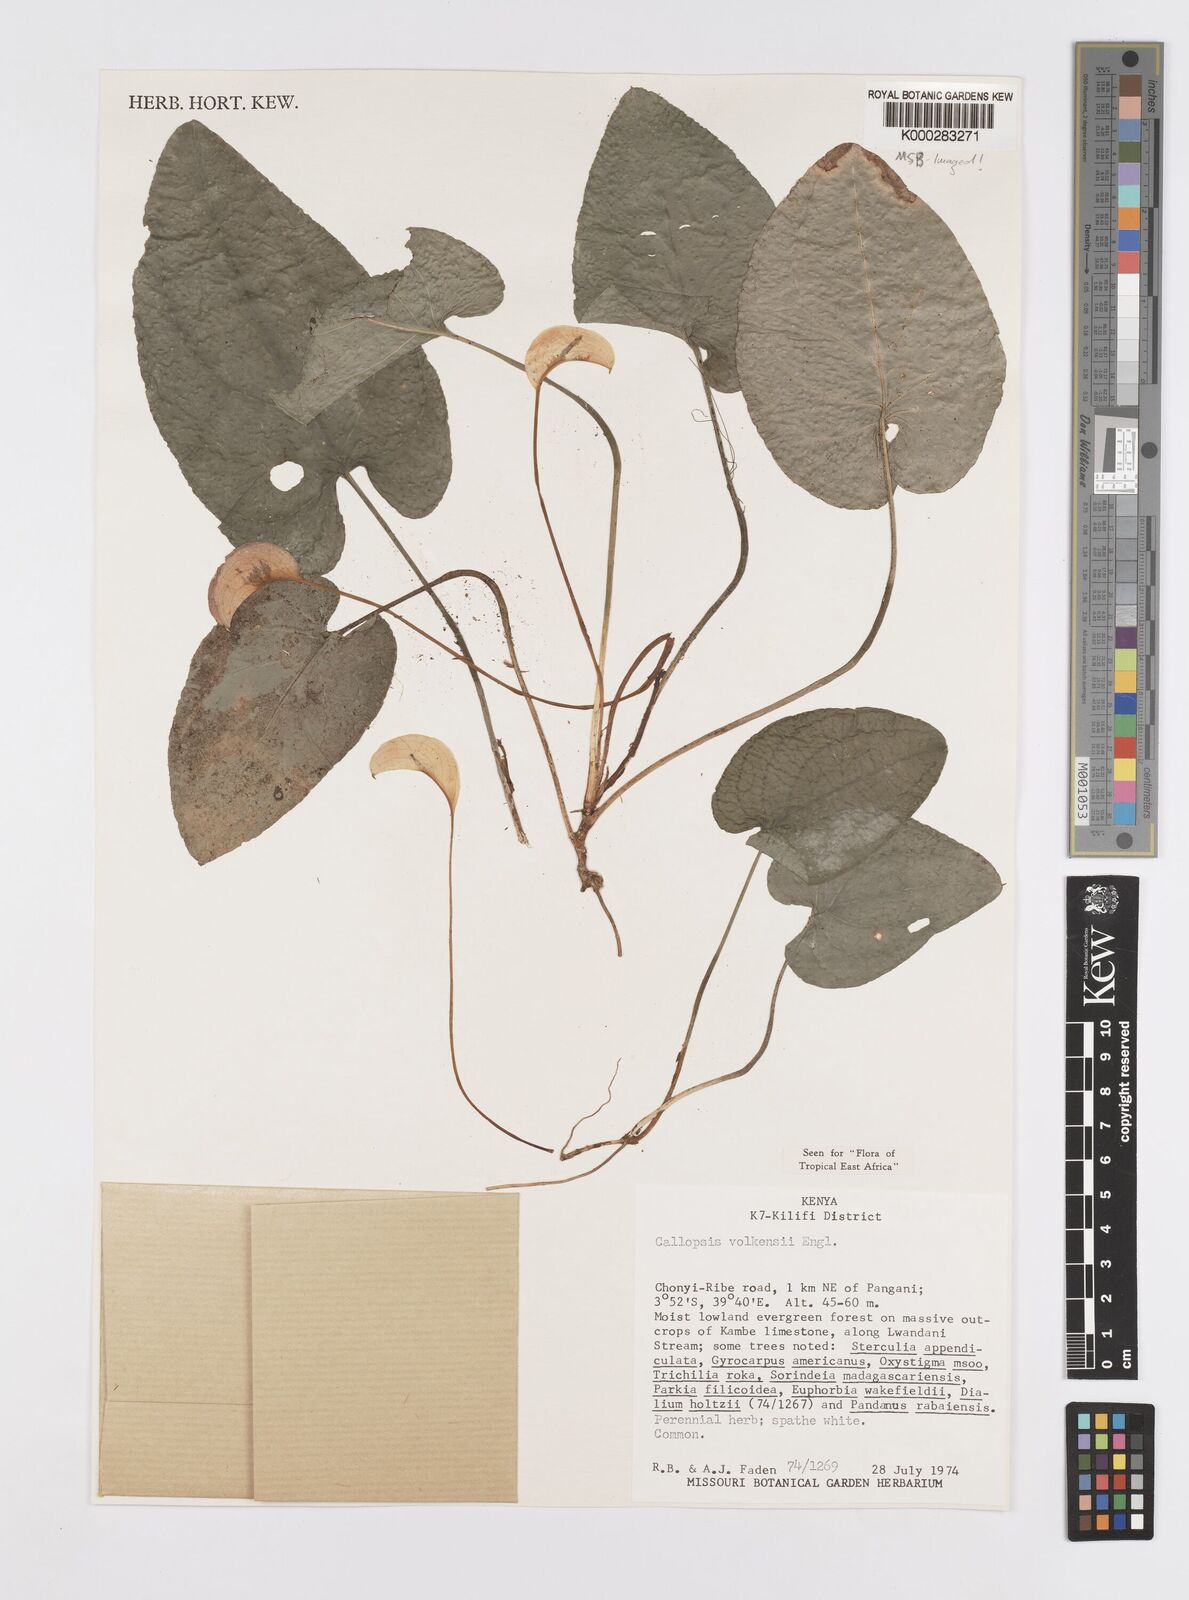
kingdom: Plantae
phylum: Tracheophyta
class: Liliopsida
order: Alismatales
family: Araceae
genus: Callopsis
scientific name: Callopsis volkensii
